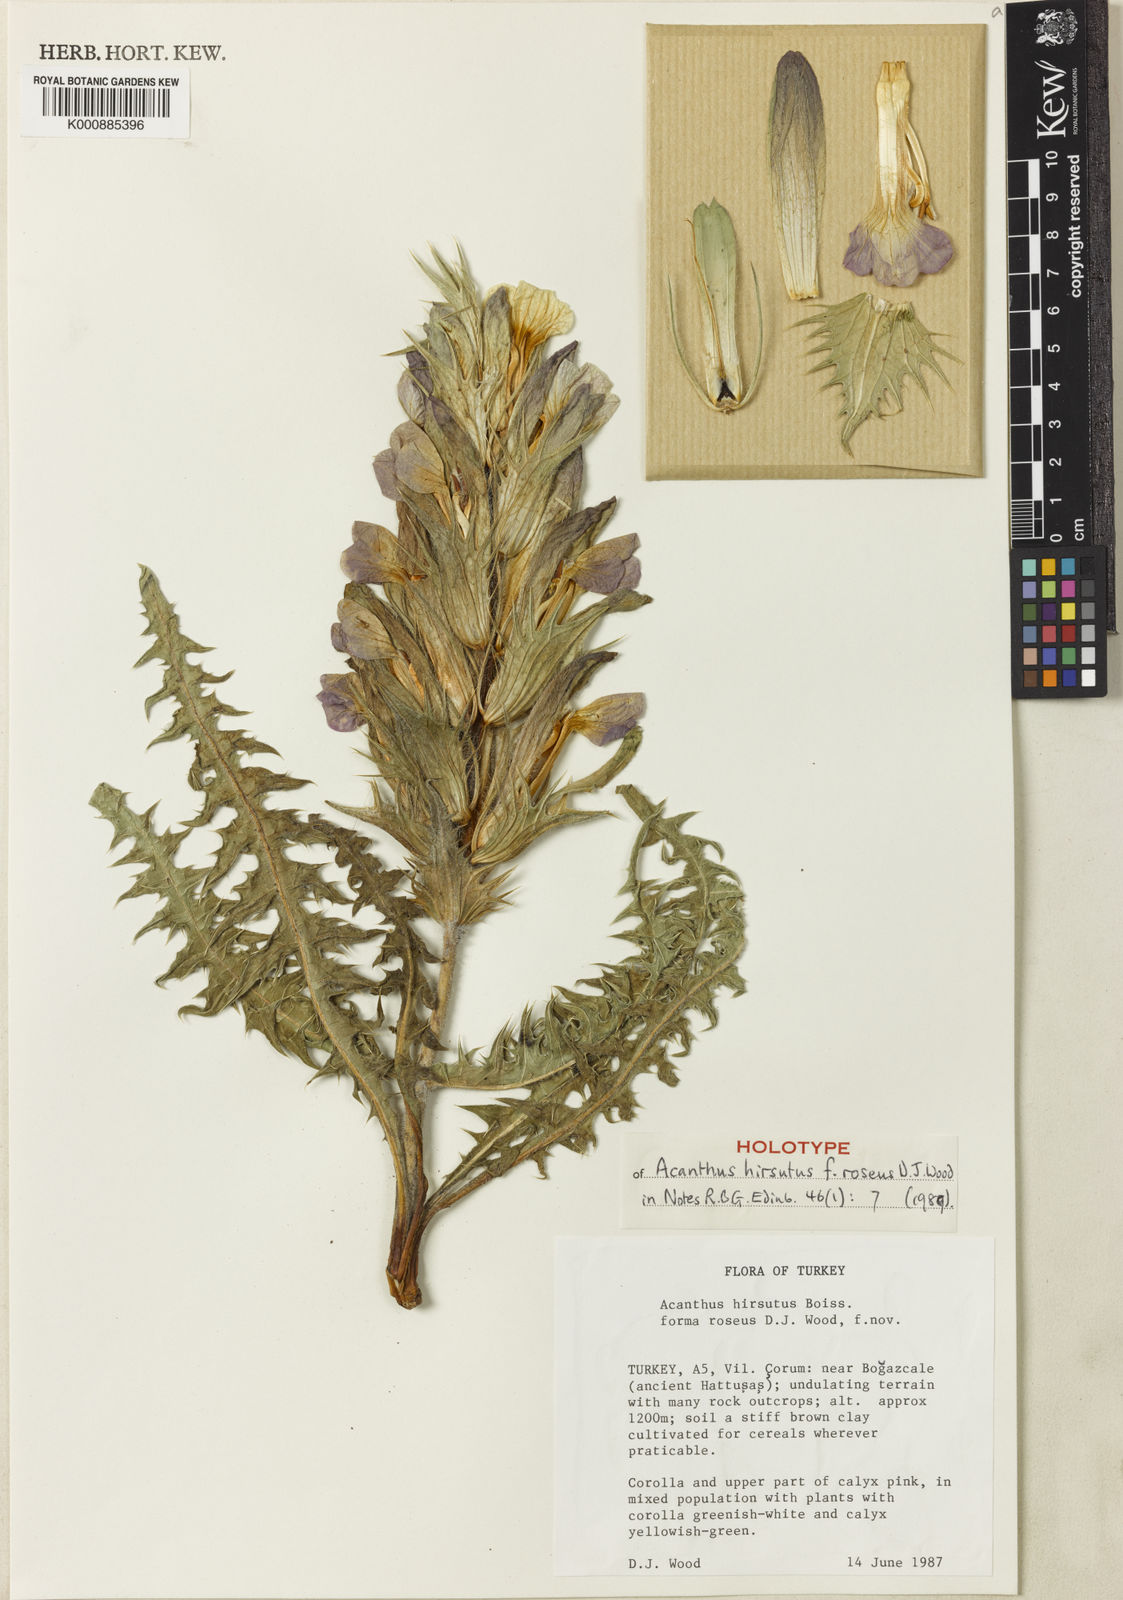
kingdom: Plantae
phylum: Tracheophyta
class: Magnoliopsida
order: Lamiales
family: Acanthaceae
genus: Acanthus
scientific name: Acanthus hirsutus
